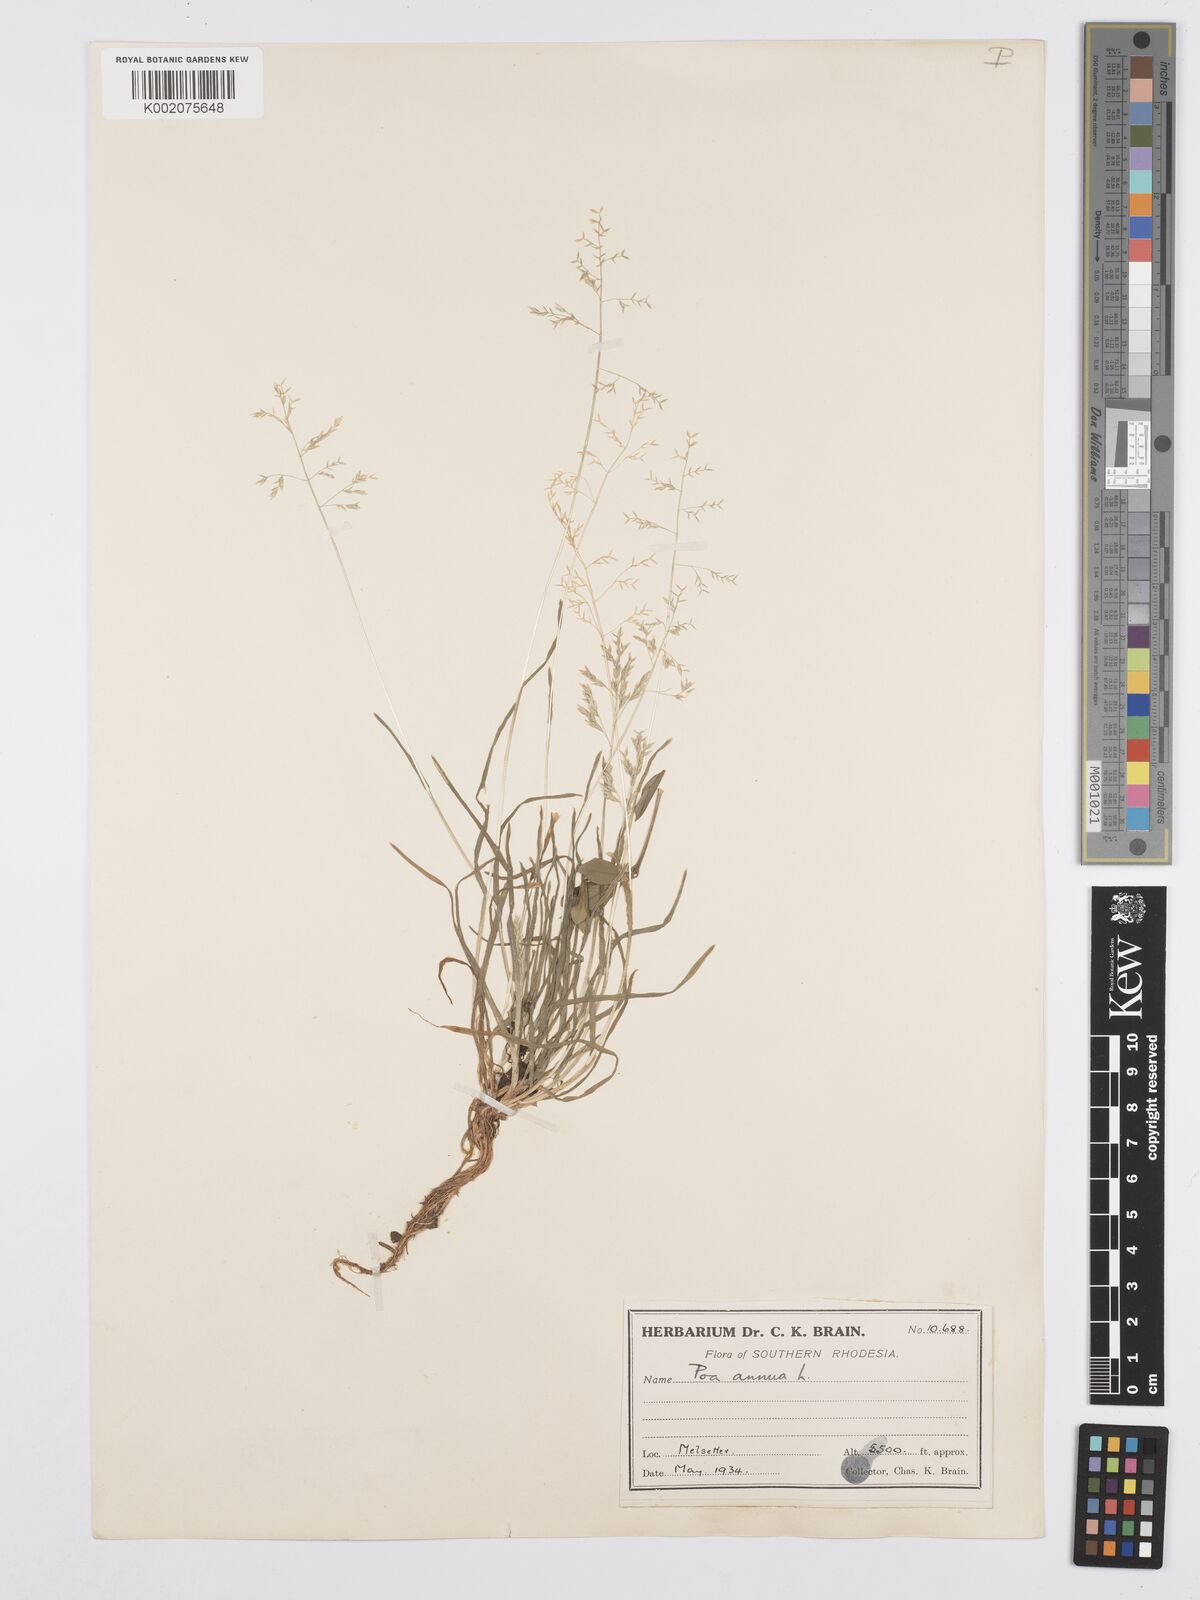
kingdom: Plantae
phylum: Tracheophyta
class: Liliopsida
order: Poales
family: Poaceae
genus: Poa
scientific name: Poa annua
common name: Annual bluegrass
